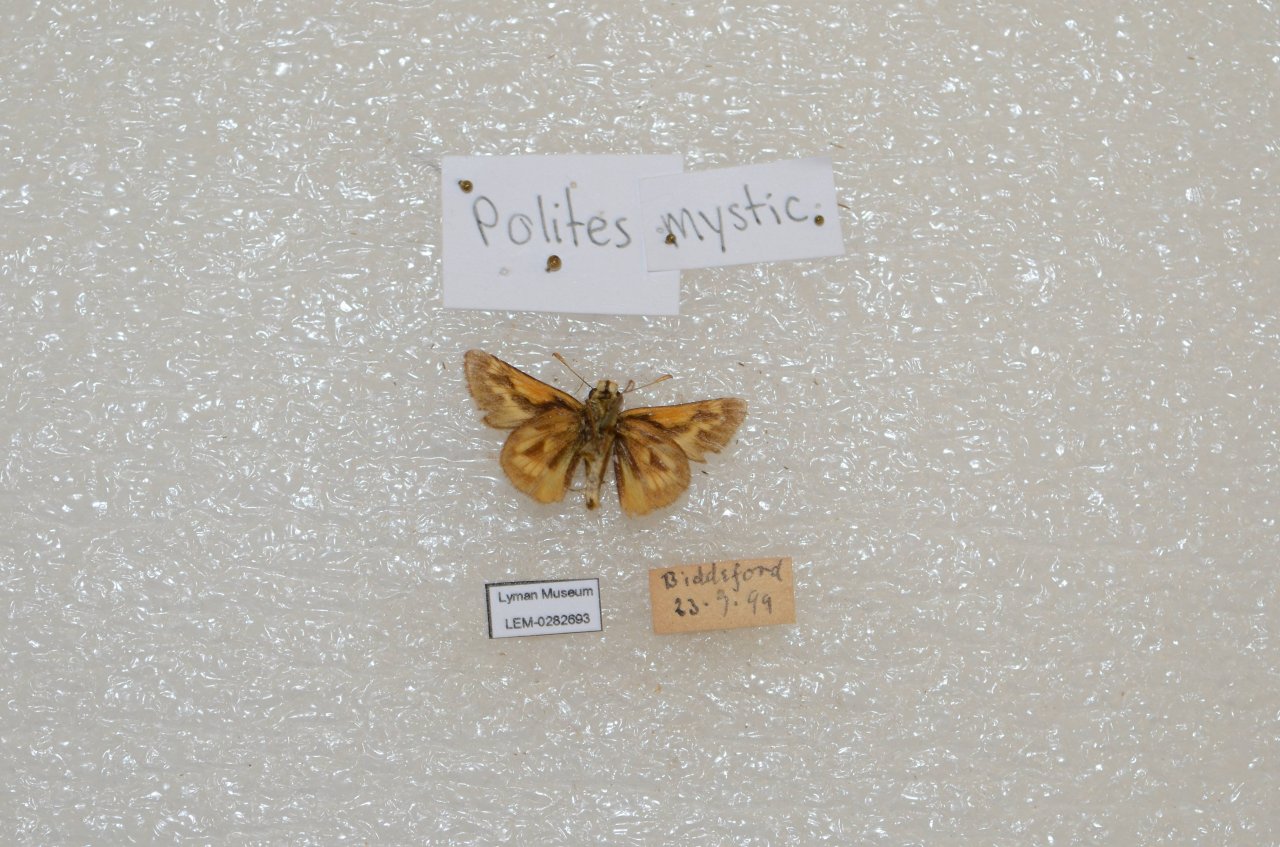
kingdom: Animalia
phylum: Arthropoda
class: Insecta
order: Lepidoptera
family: Hesperiidae
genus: Polites
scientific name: Polites
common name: Long Dash Skipper
